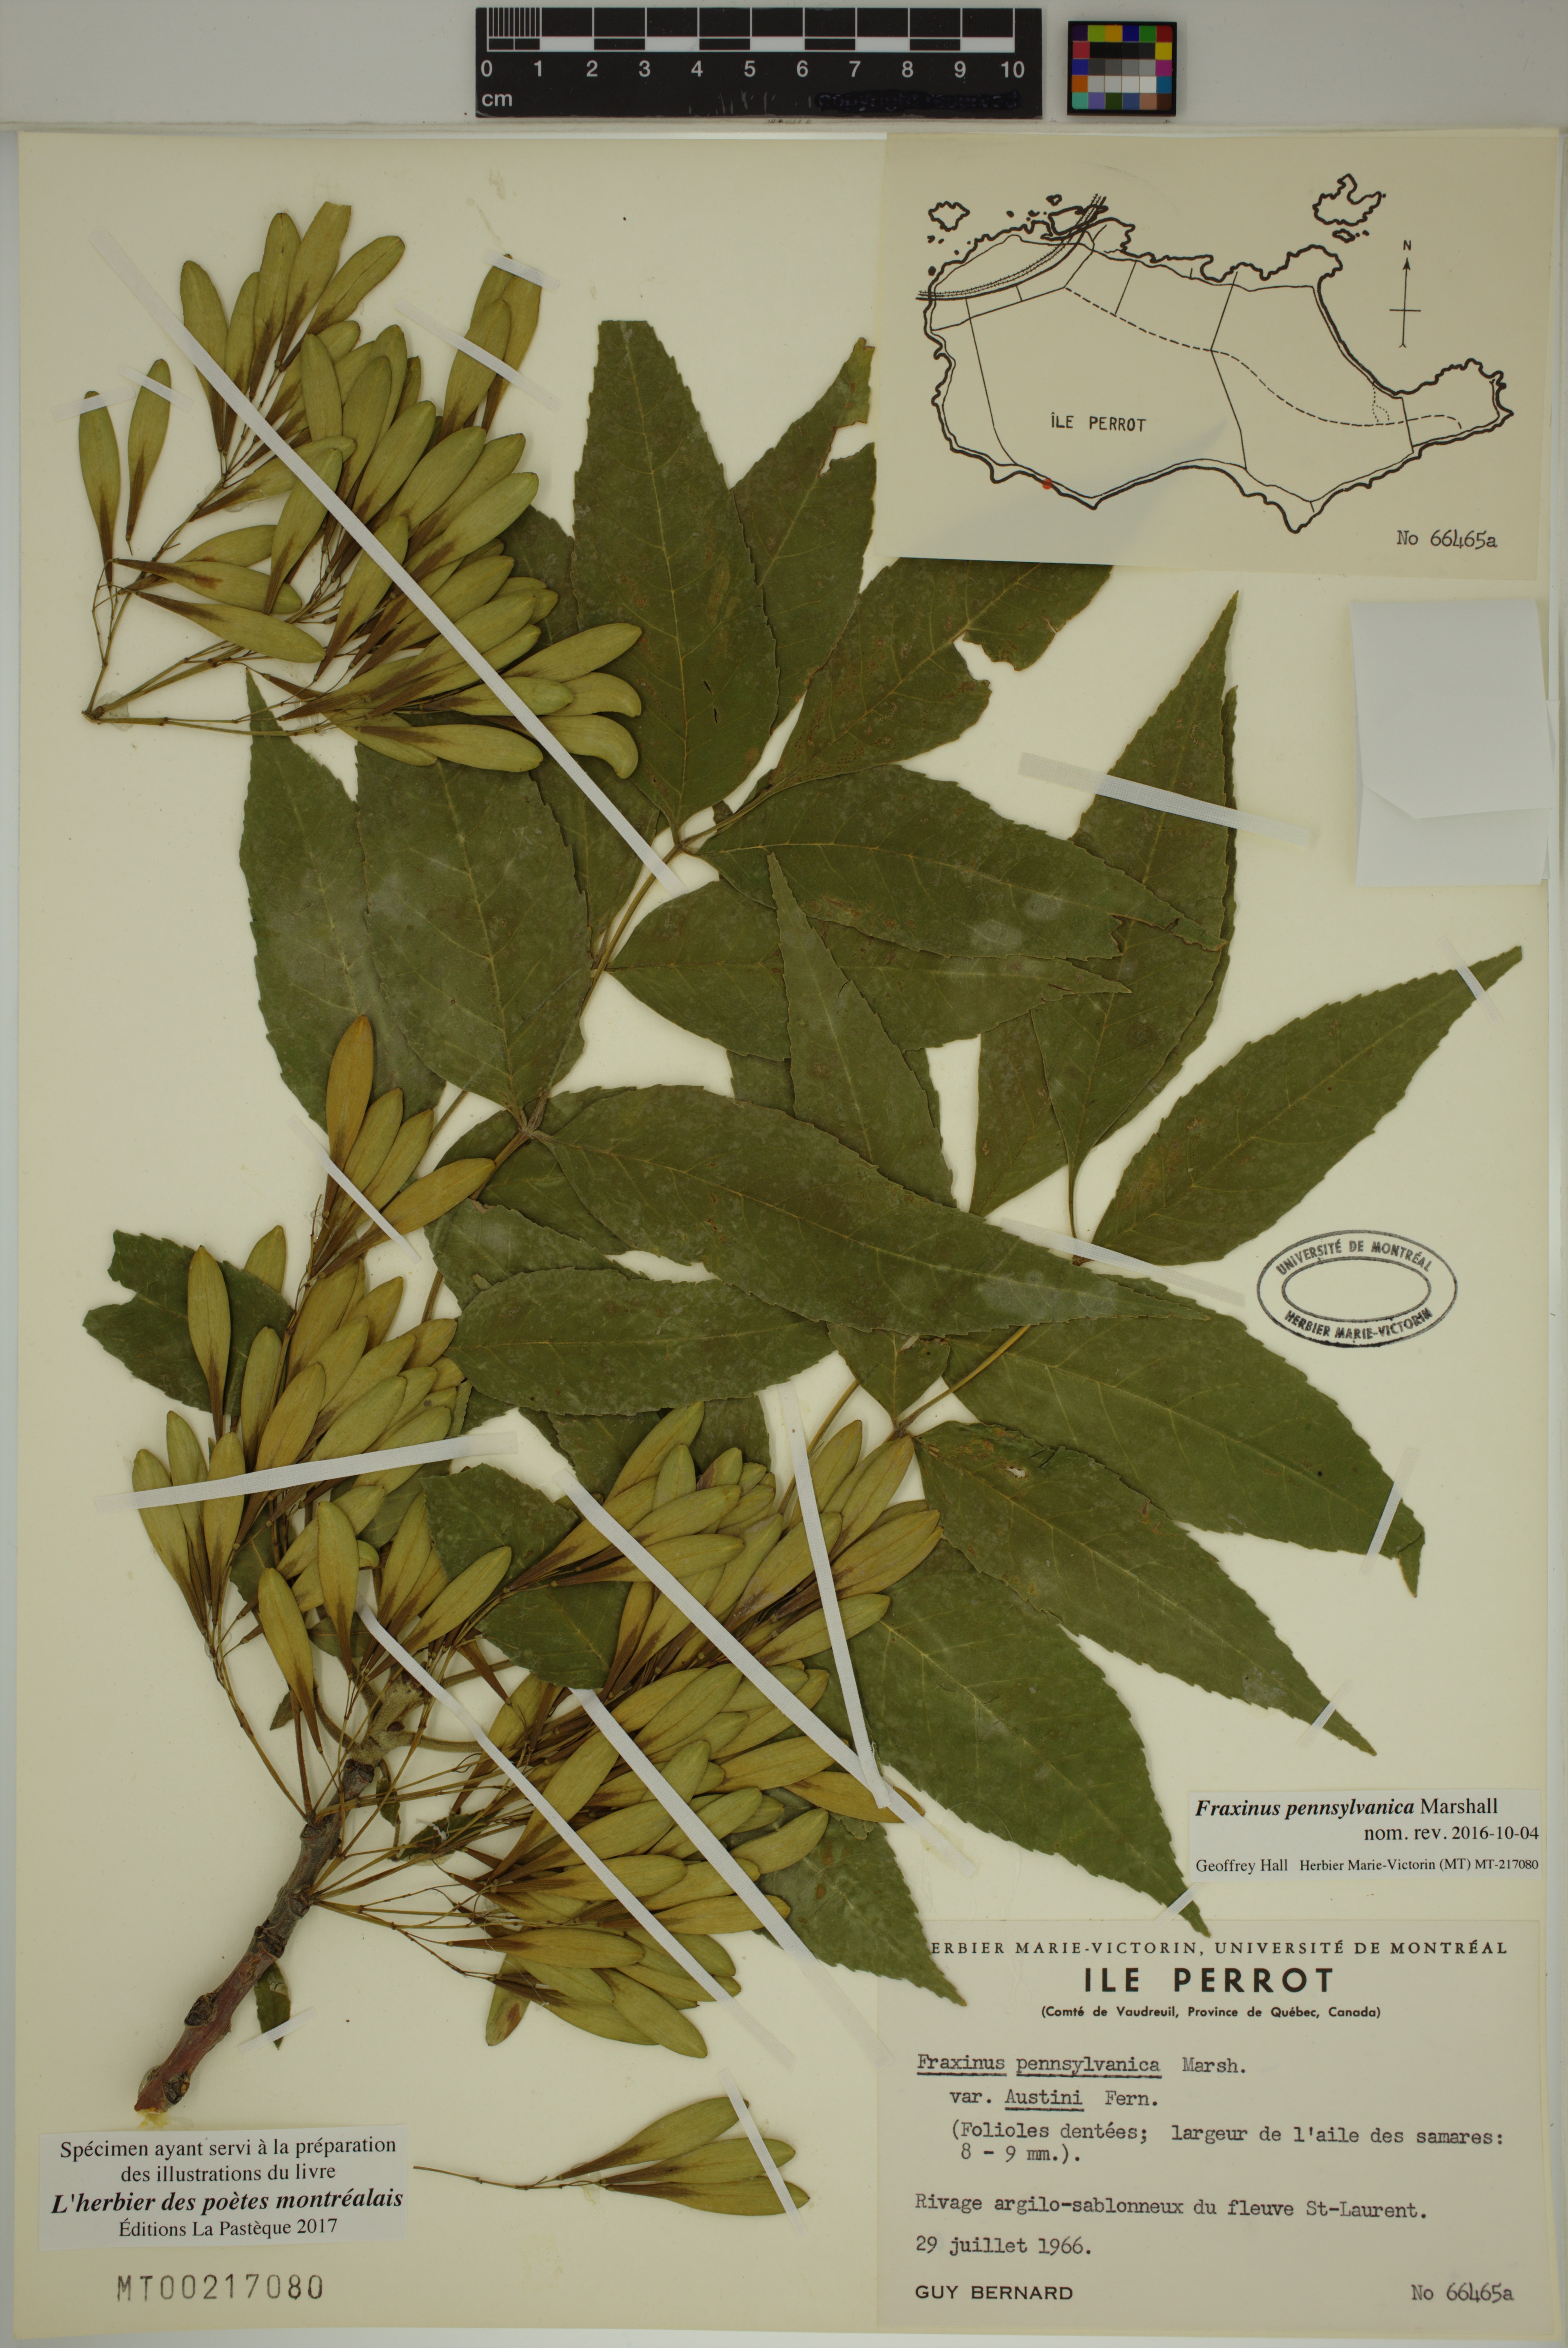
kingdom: Plantae
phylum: Tracheophyta
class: Magnoliopsida
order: Lamiales
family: Oleaceae
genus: Fraxinus
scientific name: Fraxinus pennsylvanica
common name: Green ash
